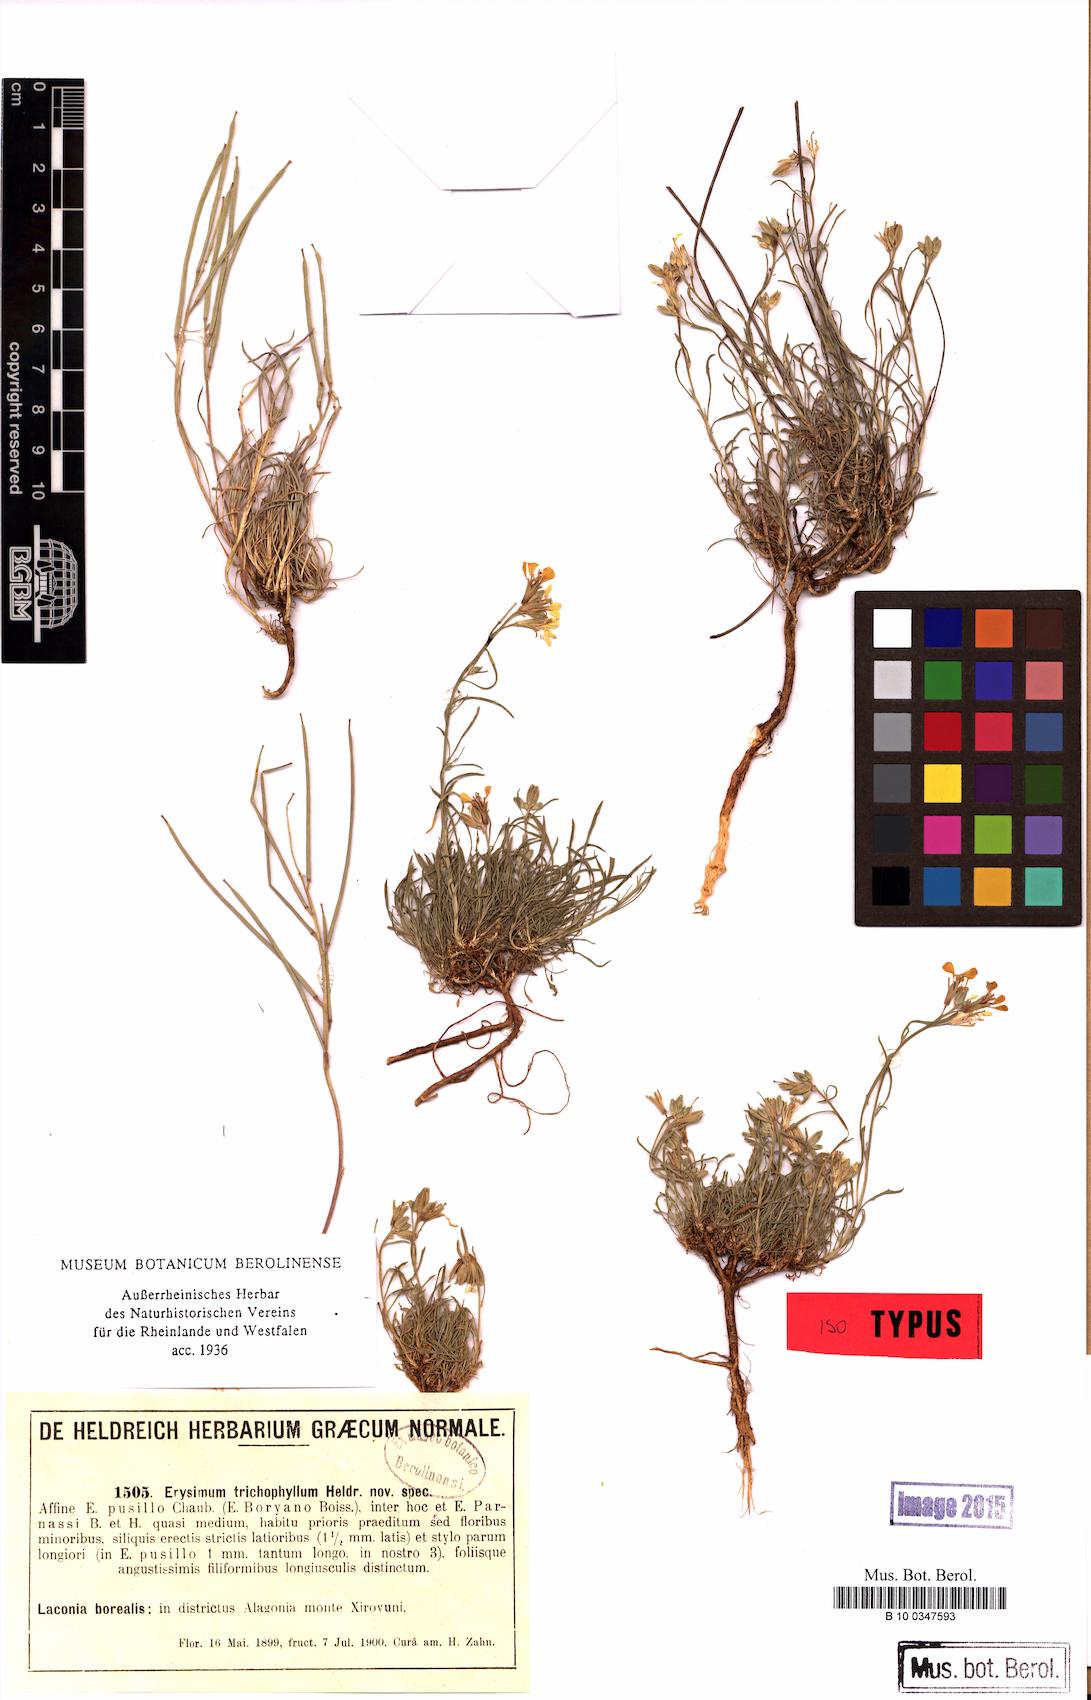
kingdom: Plantae
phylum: Tracheophyta
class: Magnoliopsida
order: Brassicales
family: Brassicaceae
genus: Erysimum
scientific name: Erysimum pusillum
